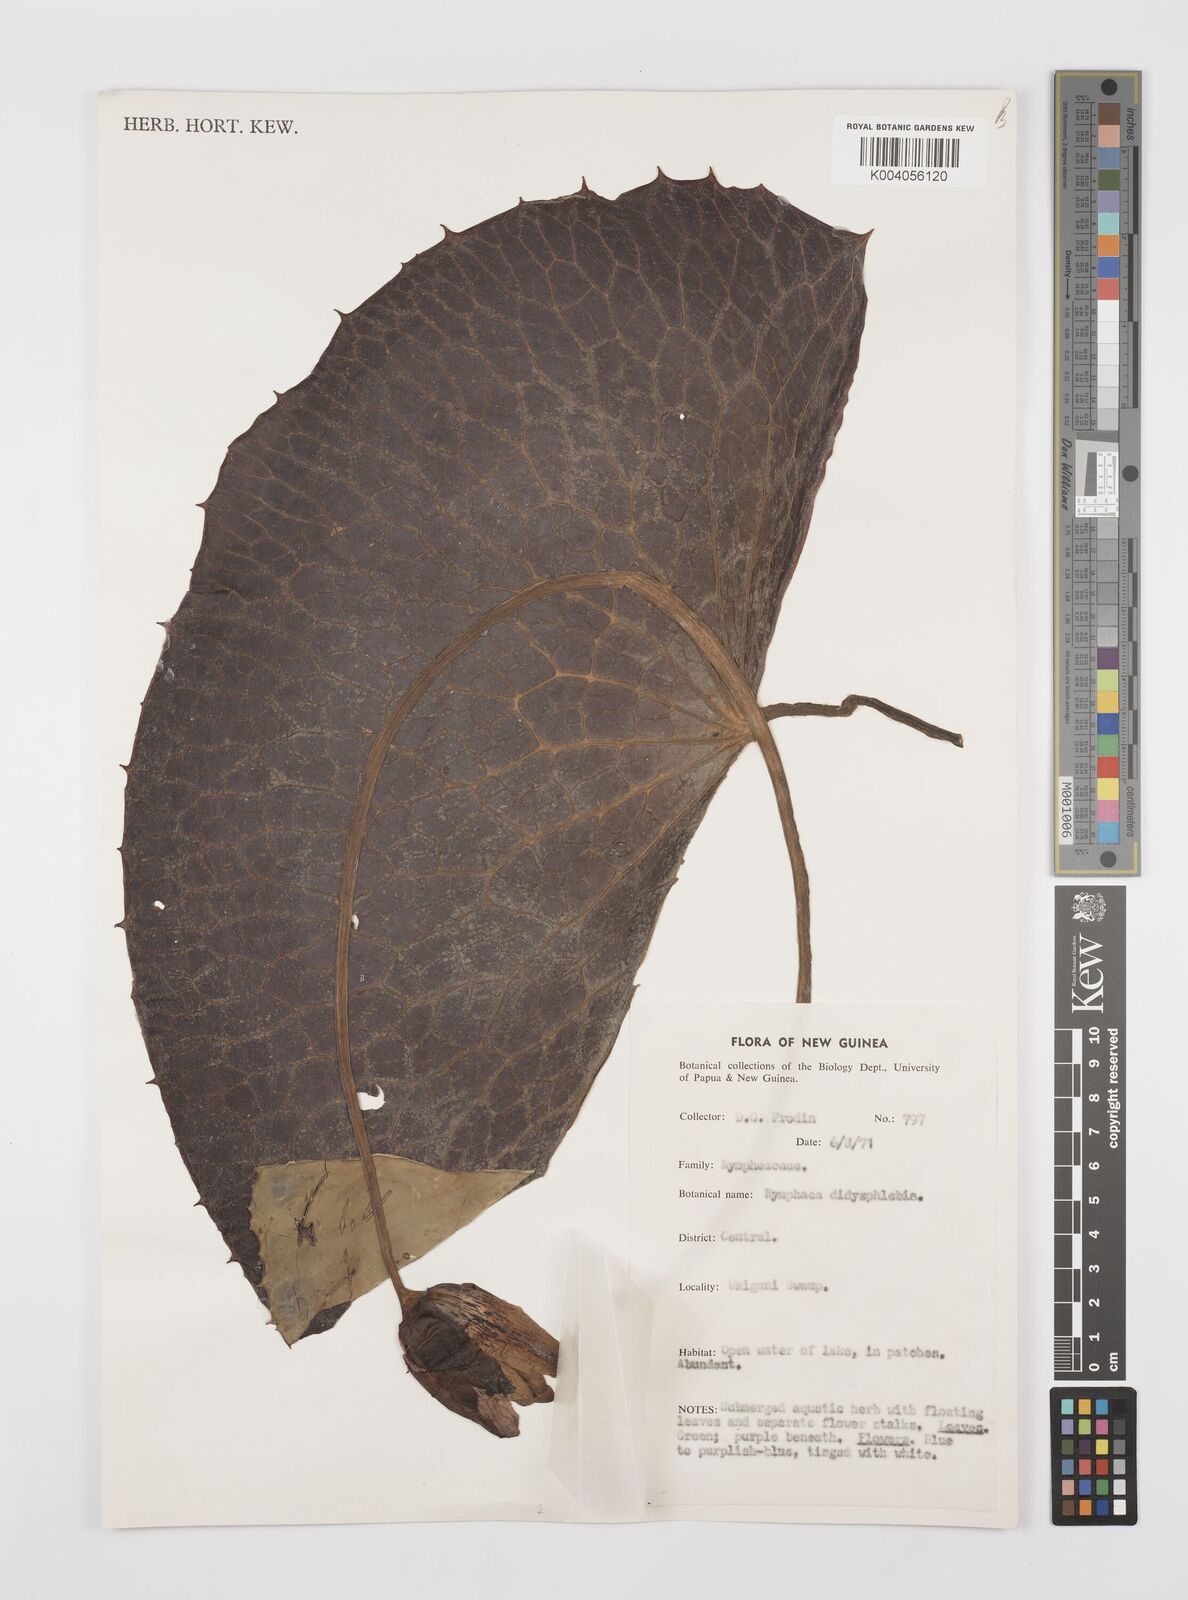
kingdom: Plantae
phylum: Tracheophyta
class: Magnoliopsida
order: Nymphaeales
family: Nymphaeaceae
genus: Nymphaea
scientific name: Nymphaea
